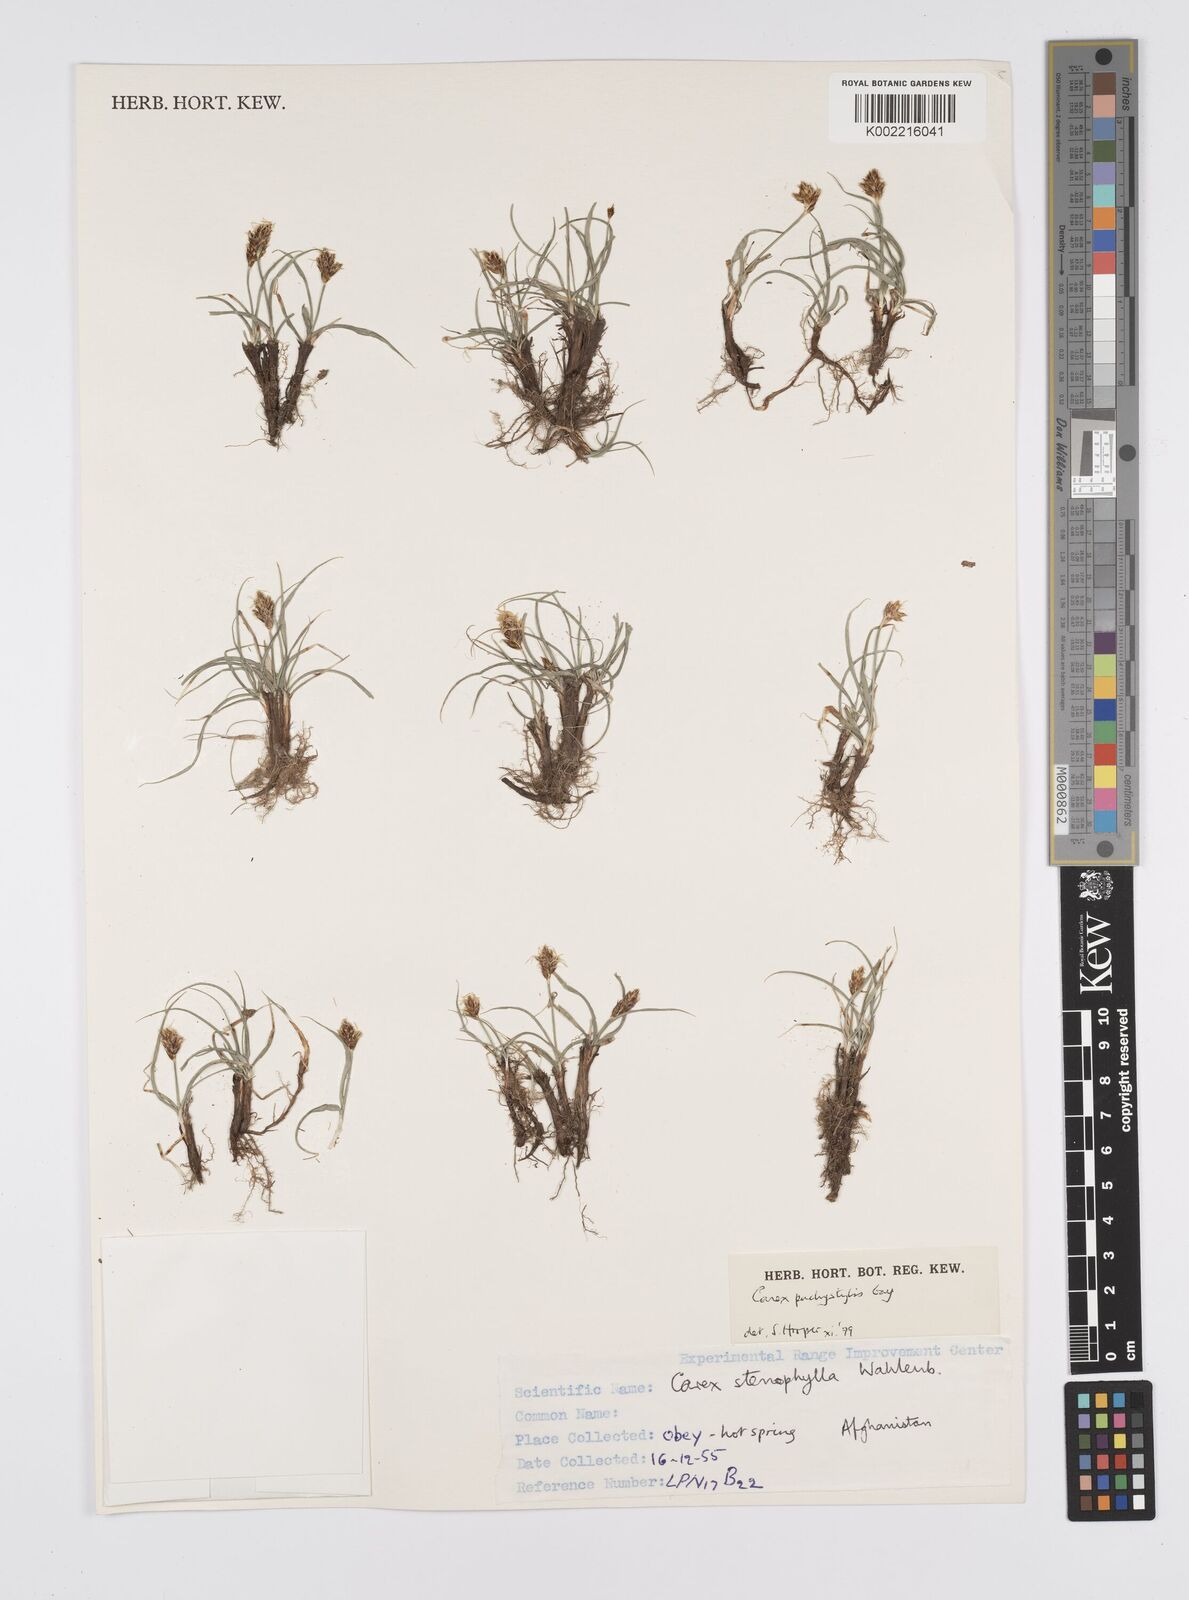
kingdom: Plantae
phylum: Tracheophyta
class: Liliopsida
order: Poales
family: Cyperaceae
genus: Carex
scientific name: Carex pachystylis
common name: Thick-stem sedge
